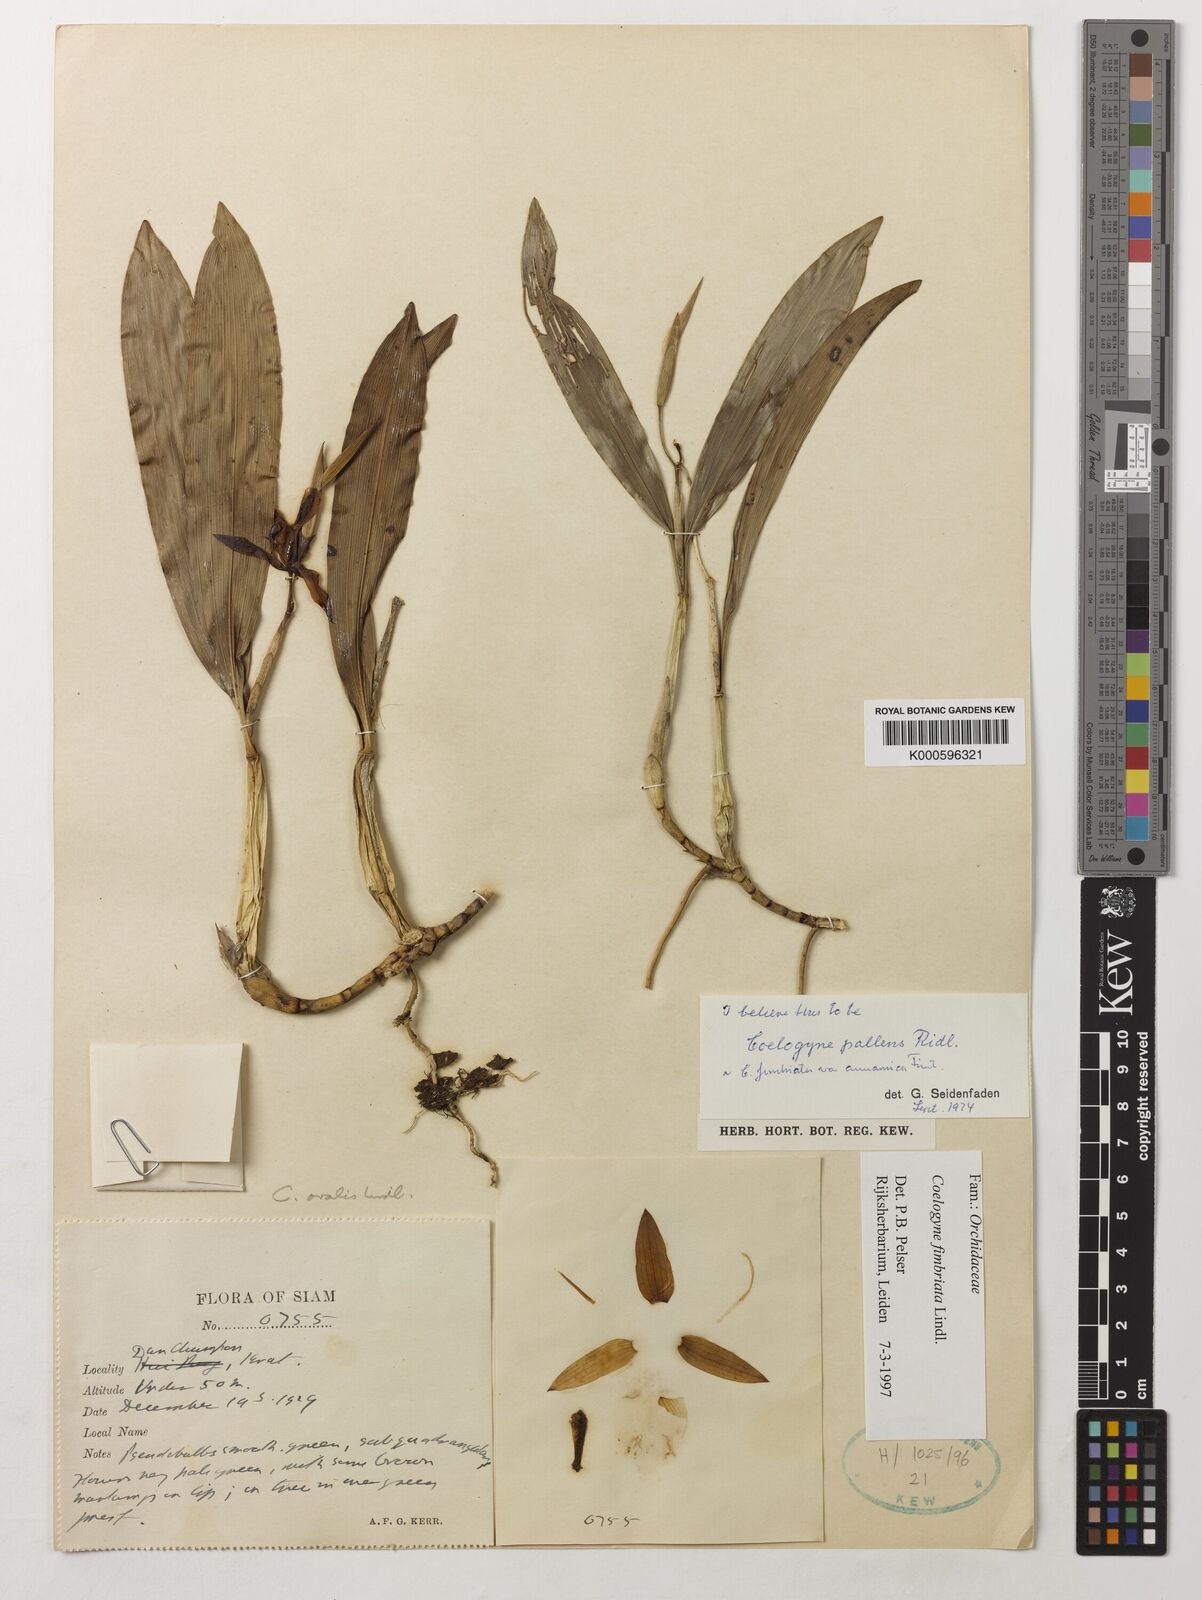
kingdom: Plantae
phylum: Tracheophyta
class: Liliopsida
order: Asparagales
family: Orchidaceae
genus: Coelogyne
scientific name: Coelogyne fimbriata
